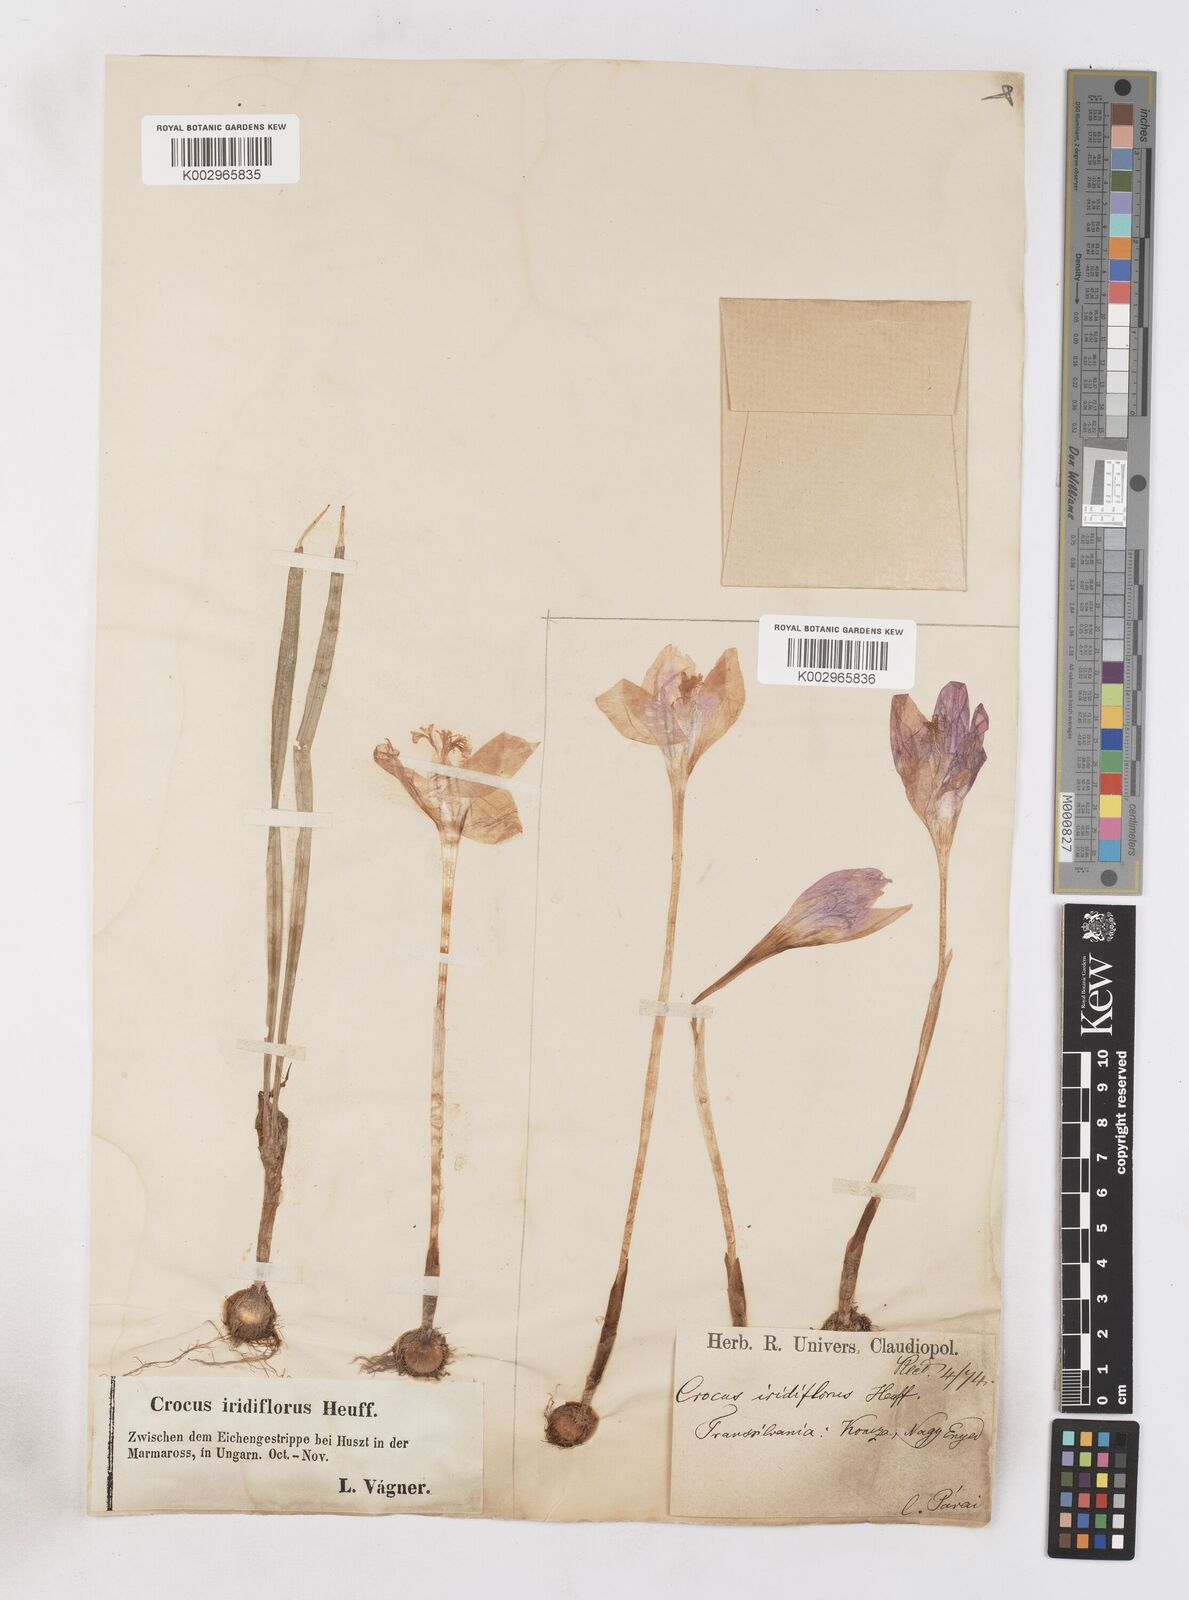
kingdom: Plantae
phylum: Tracheophyta
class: Liliopsida
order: Asparagales
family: Iridaceae
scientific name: Iridaceae
